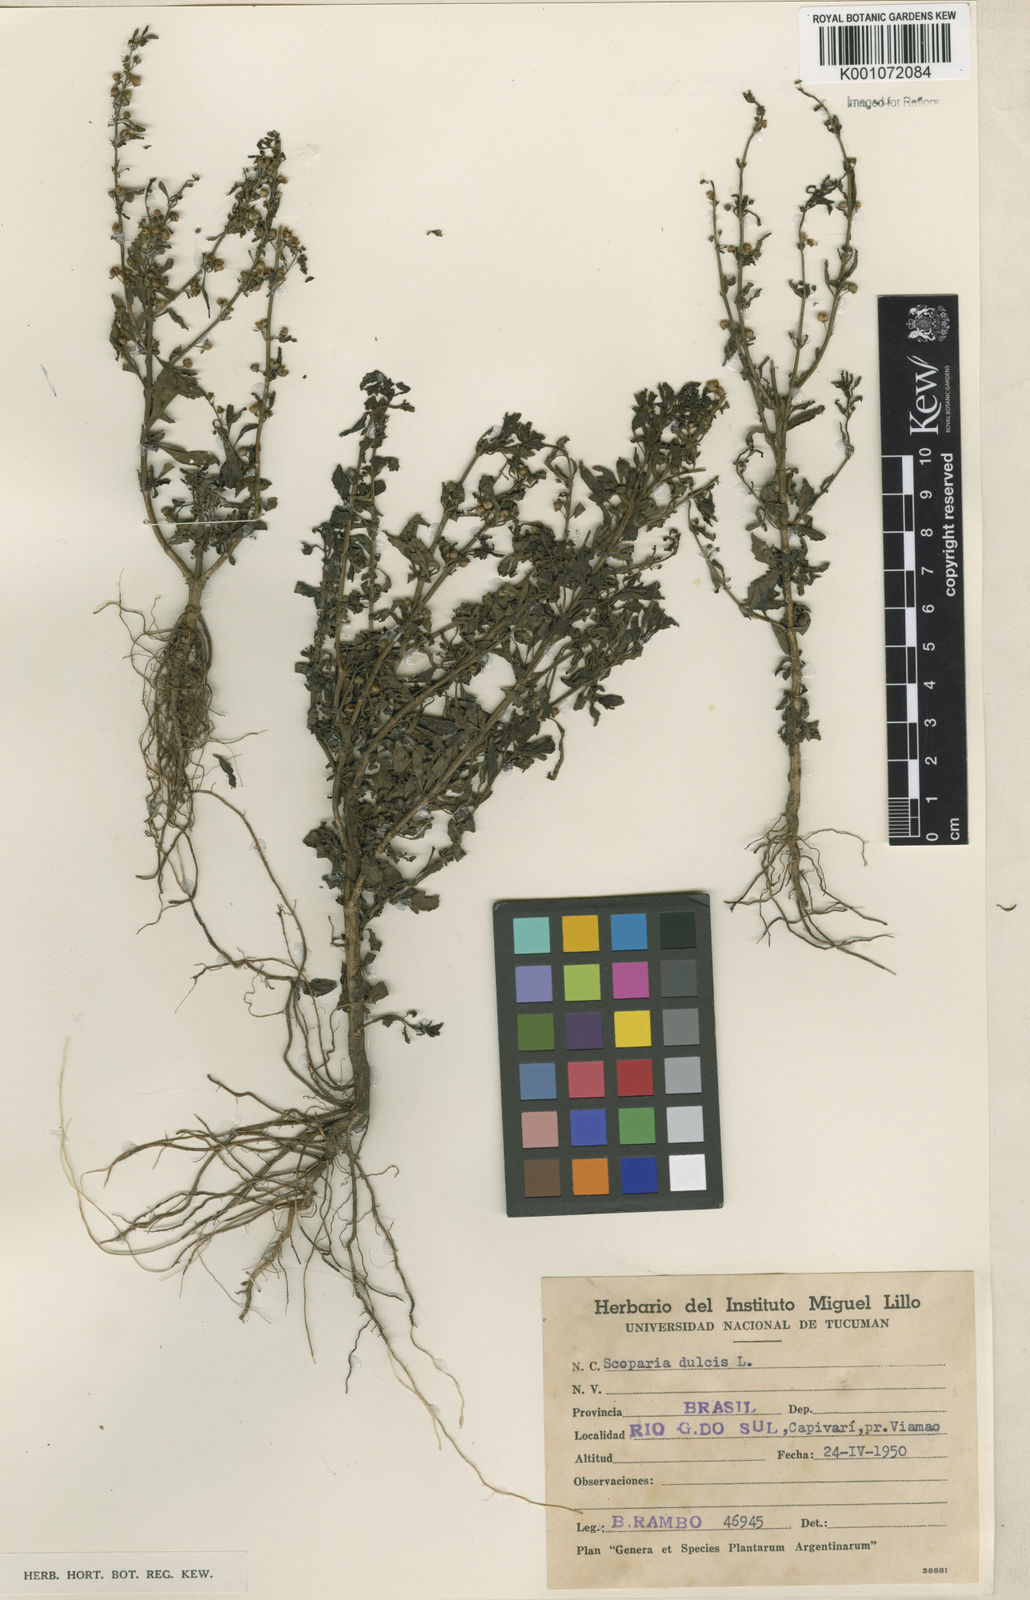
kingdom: Plantae
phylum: Tracheophyta
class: Magnoliopsida
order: Lamiales
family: Plantaginaceae
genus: Scoparia
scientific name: Scoparia dulcis
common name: Scoparia-weed
